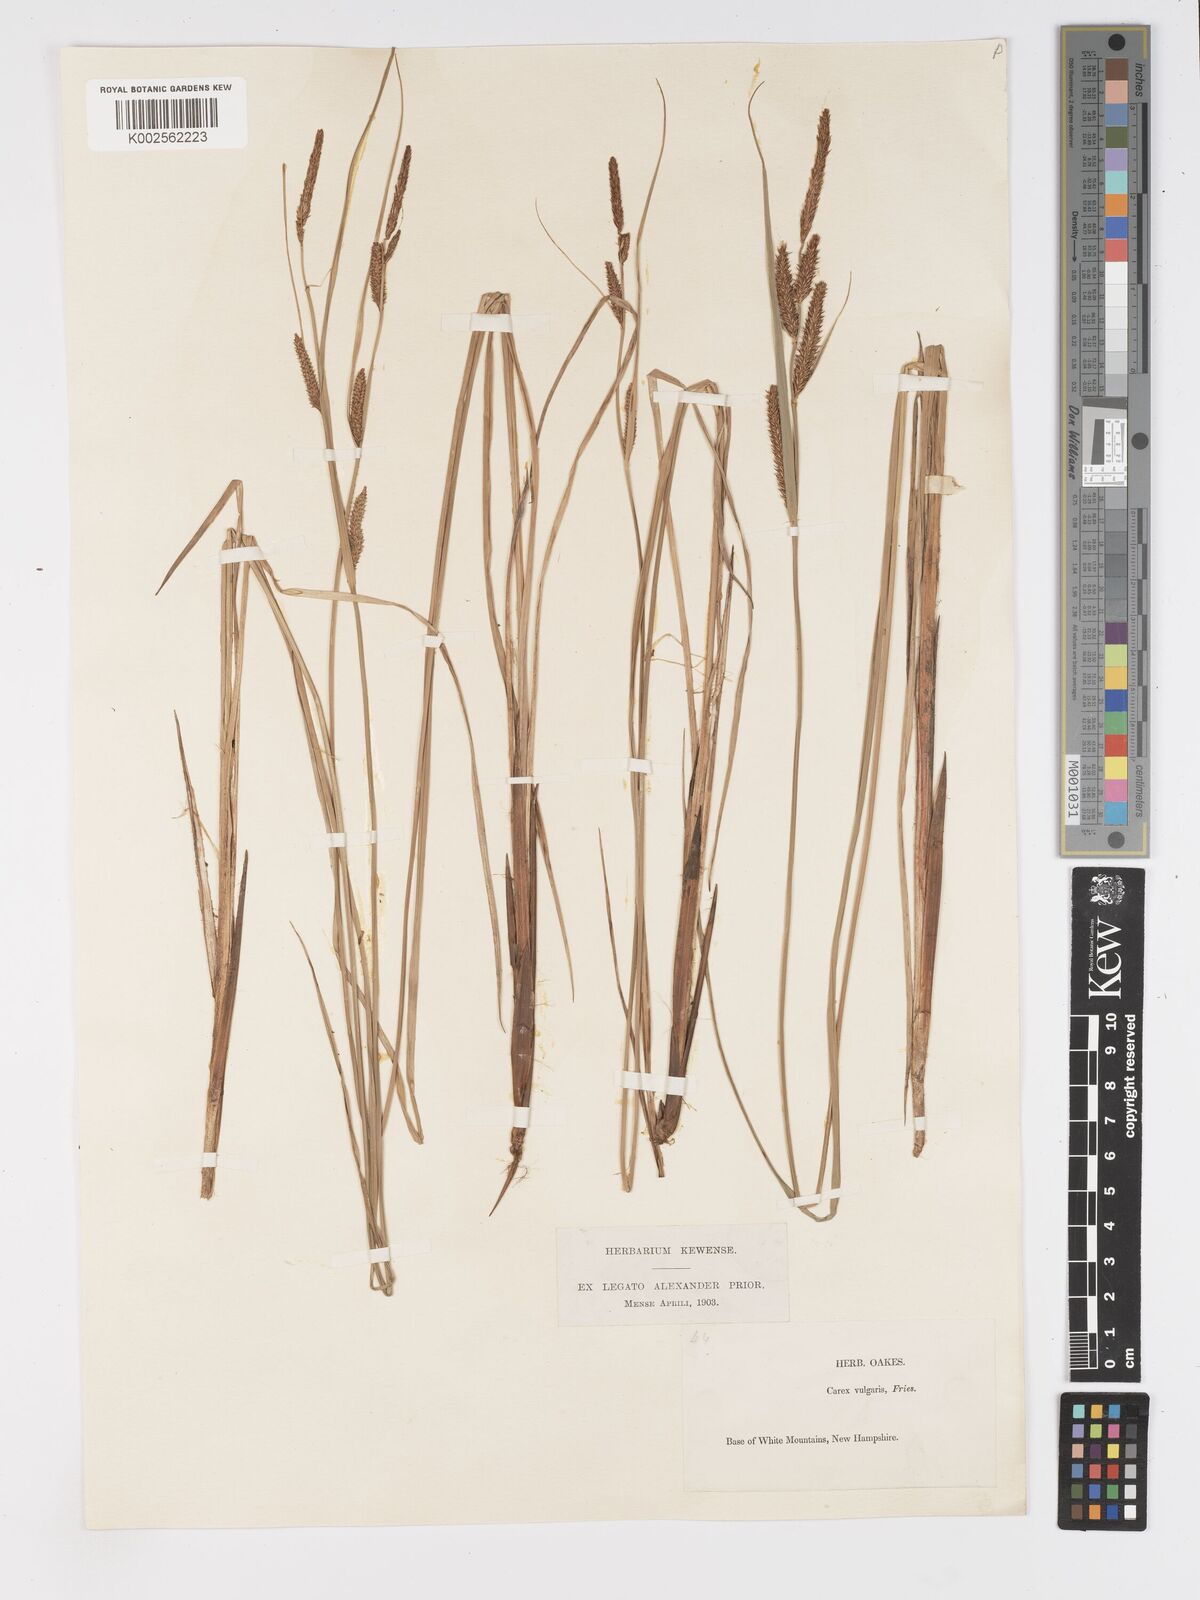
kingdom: Plantae
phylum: Tracheophyta
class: Liliopsida
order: Poales
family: Cyperaceae
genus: Carex
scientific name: Carex nigra
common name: Common sedge
